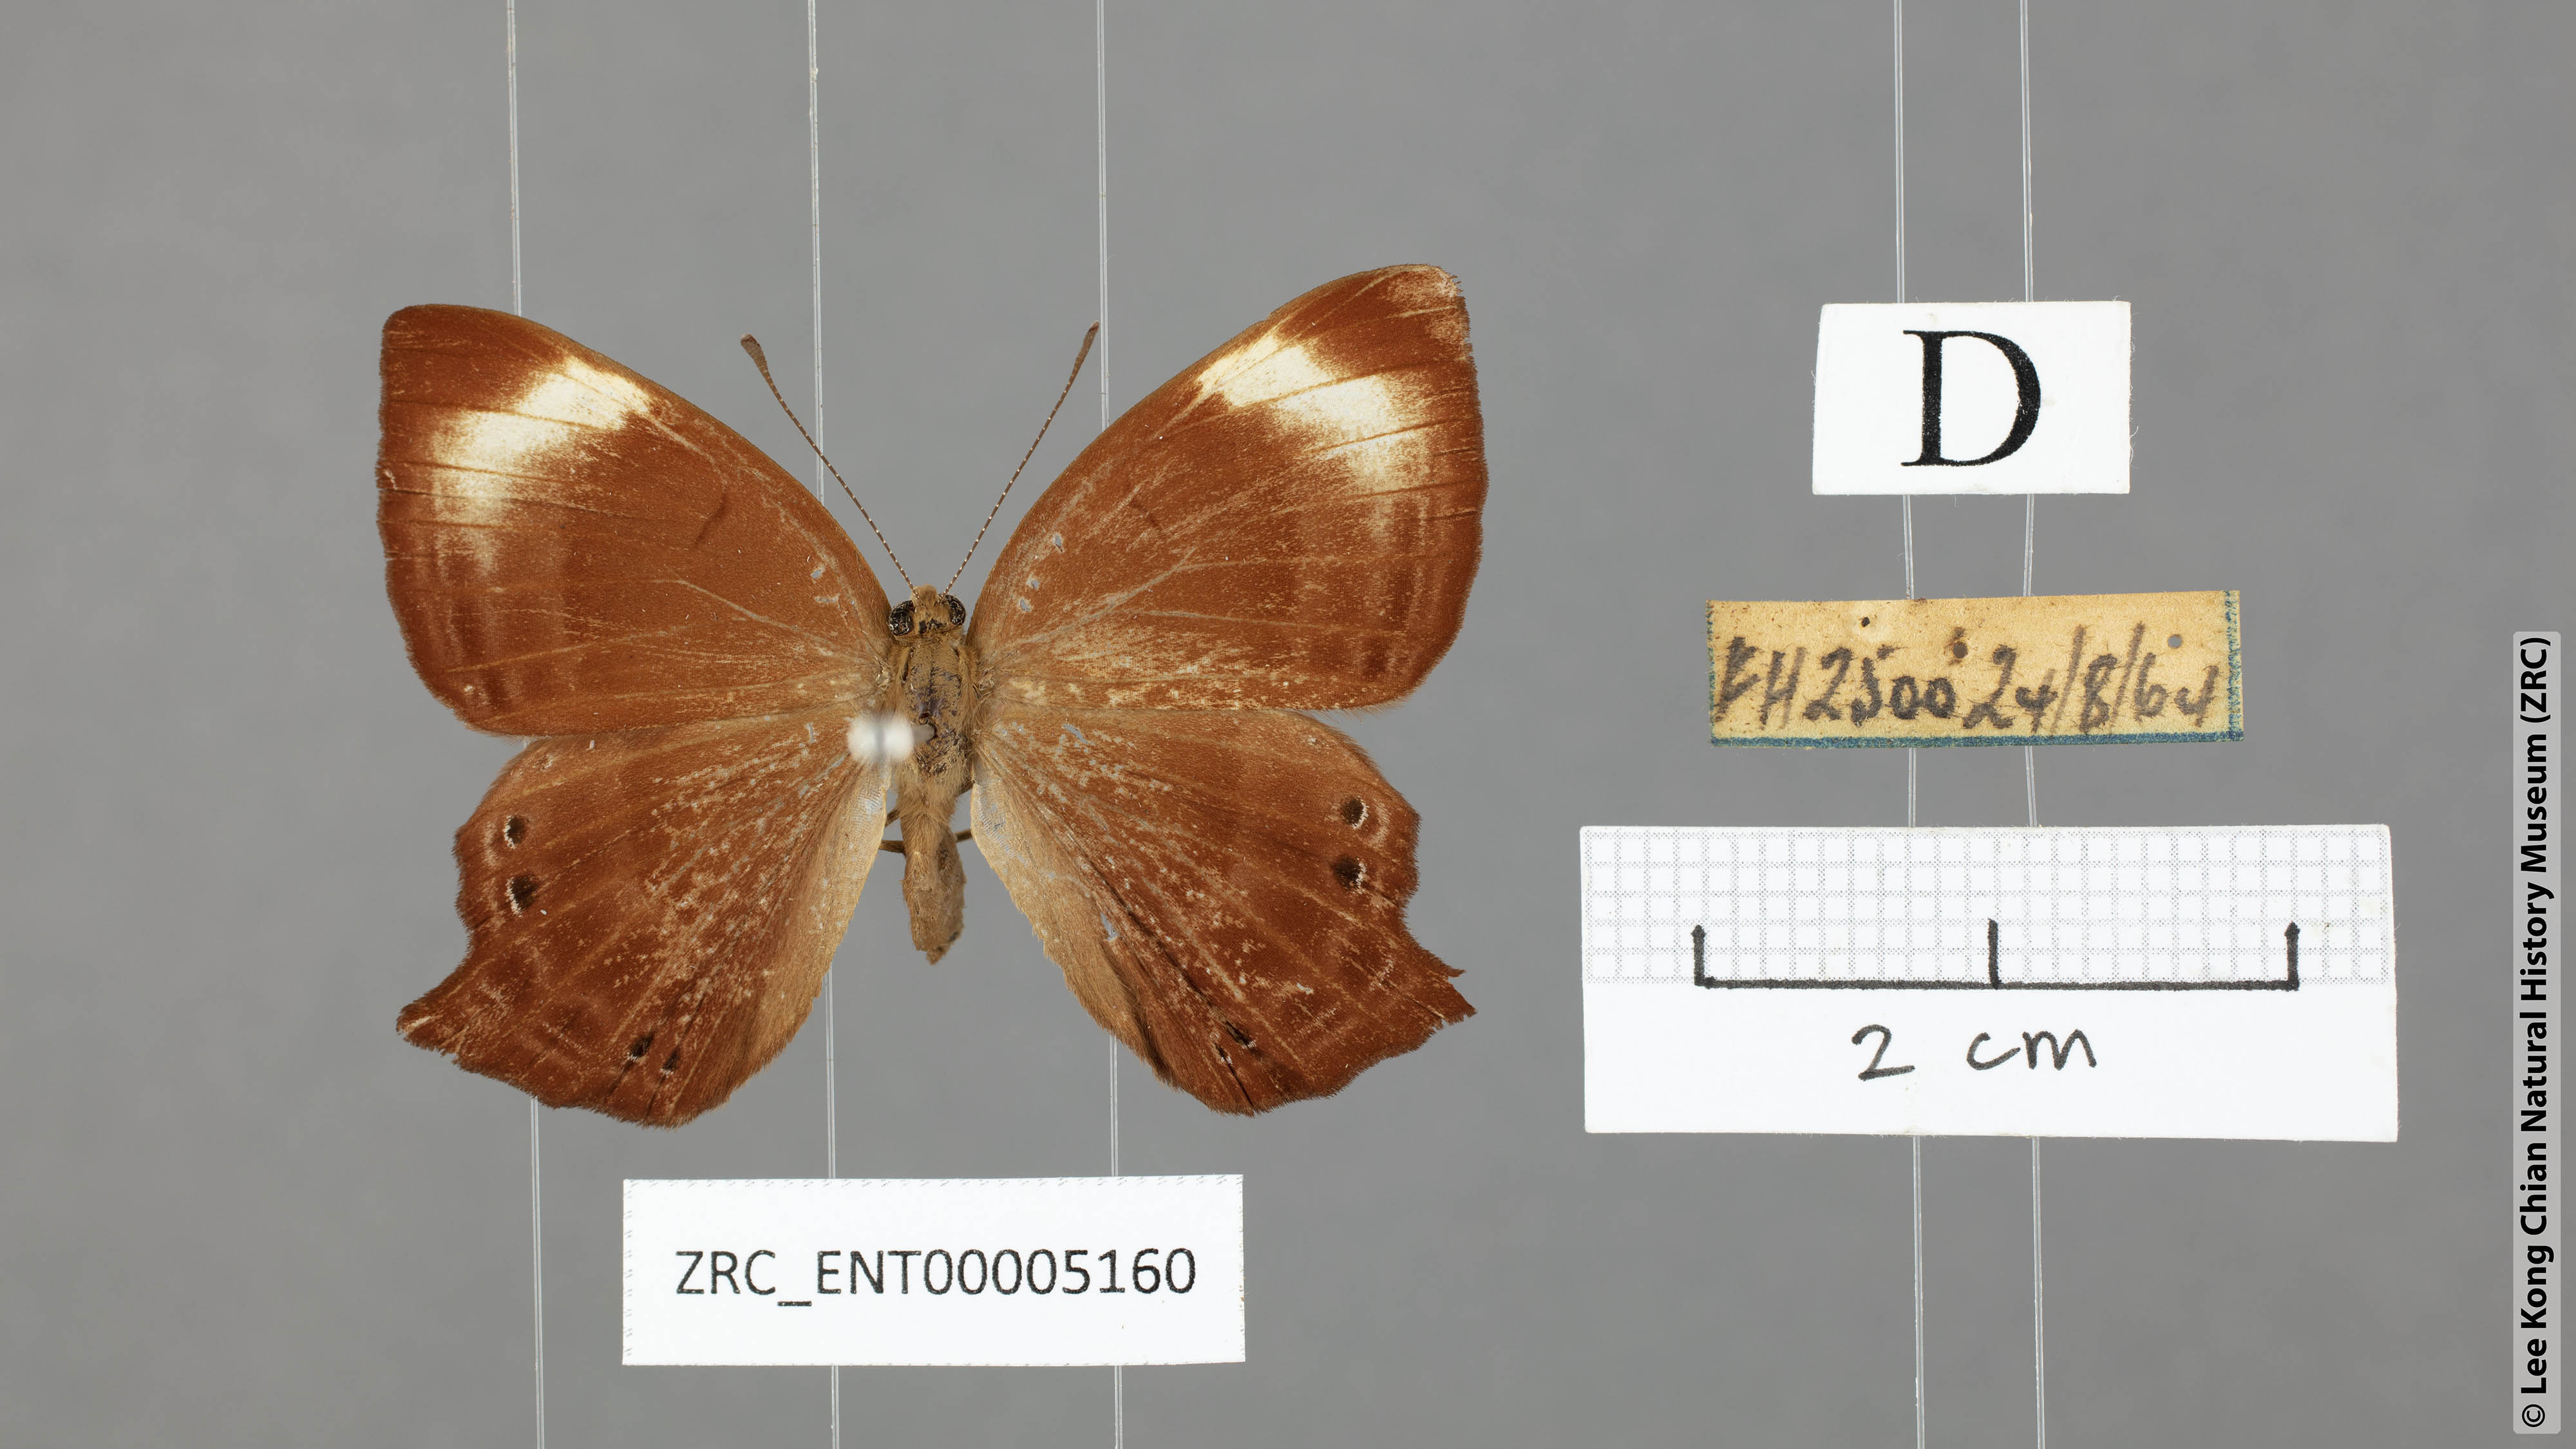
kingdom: Animalia
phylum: Arthropoda
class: Insecta
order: Lepidoptera
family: Lycaenidae
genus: Abisara
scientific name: Abisara kausambi
